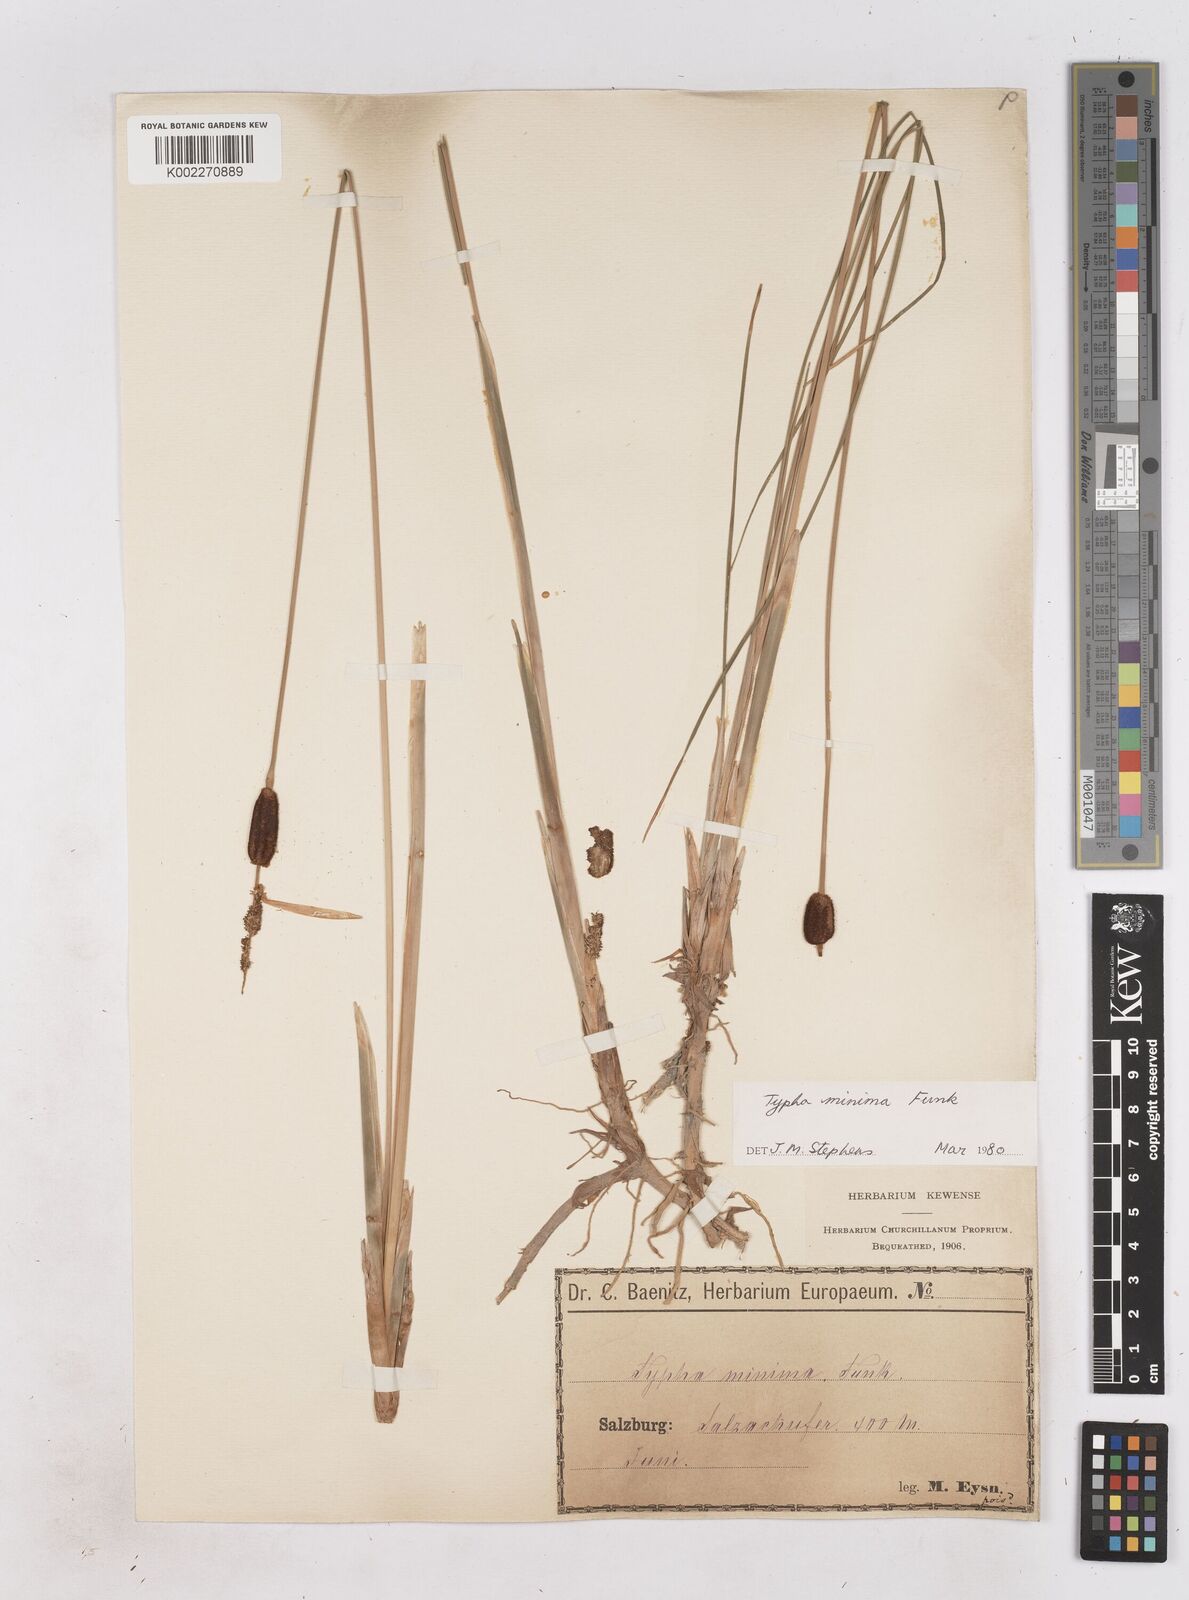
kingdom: Plantae
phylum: Tracheophyta
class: Liliopsida
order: Poales
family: Typhaceae
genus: Typha
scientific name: Typha minima
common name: Dwarf bulrush
